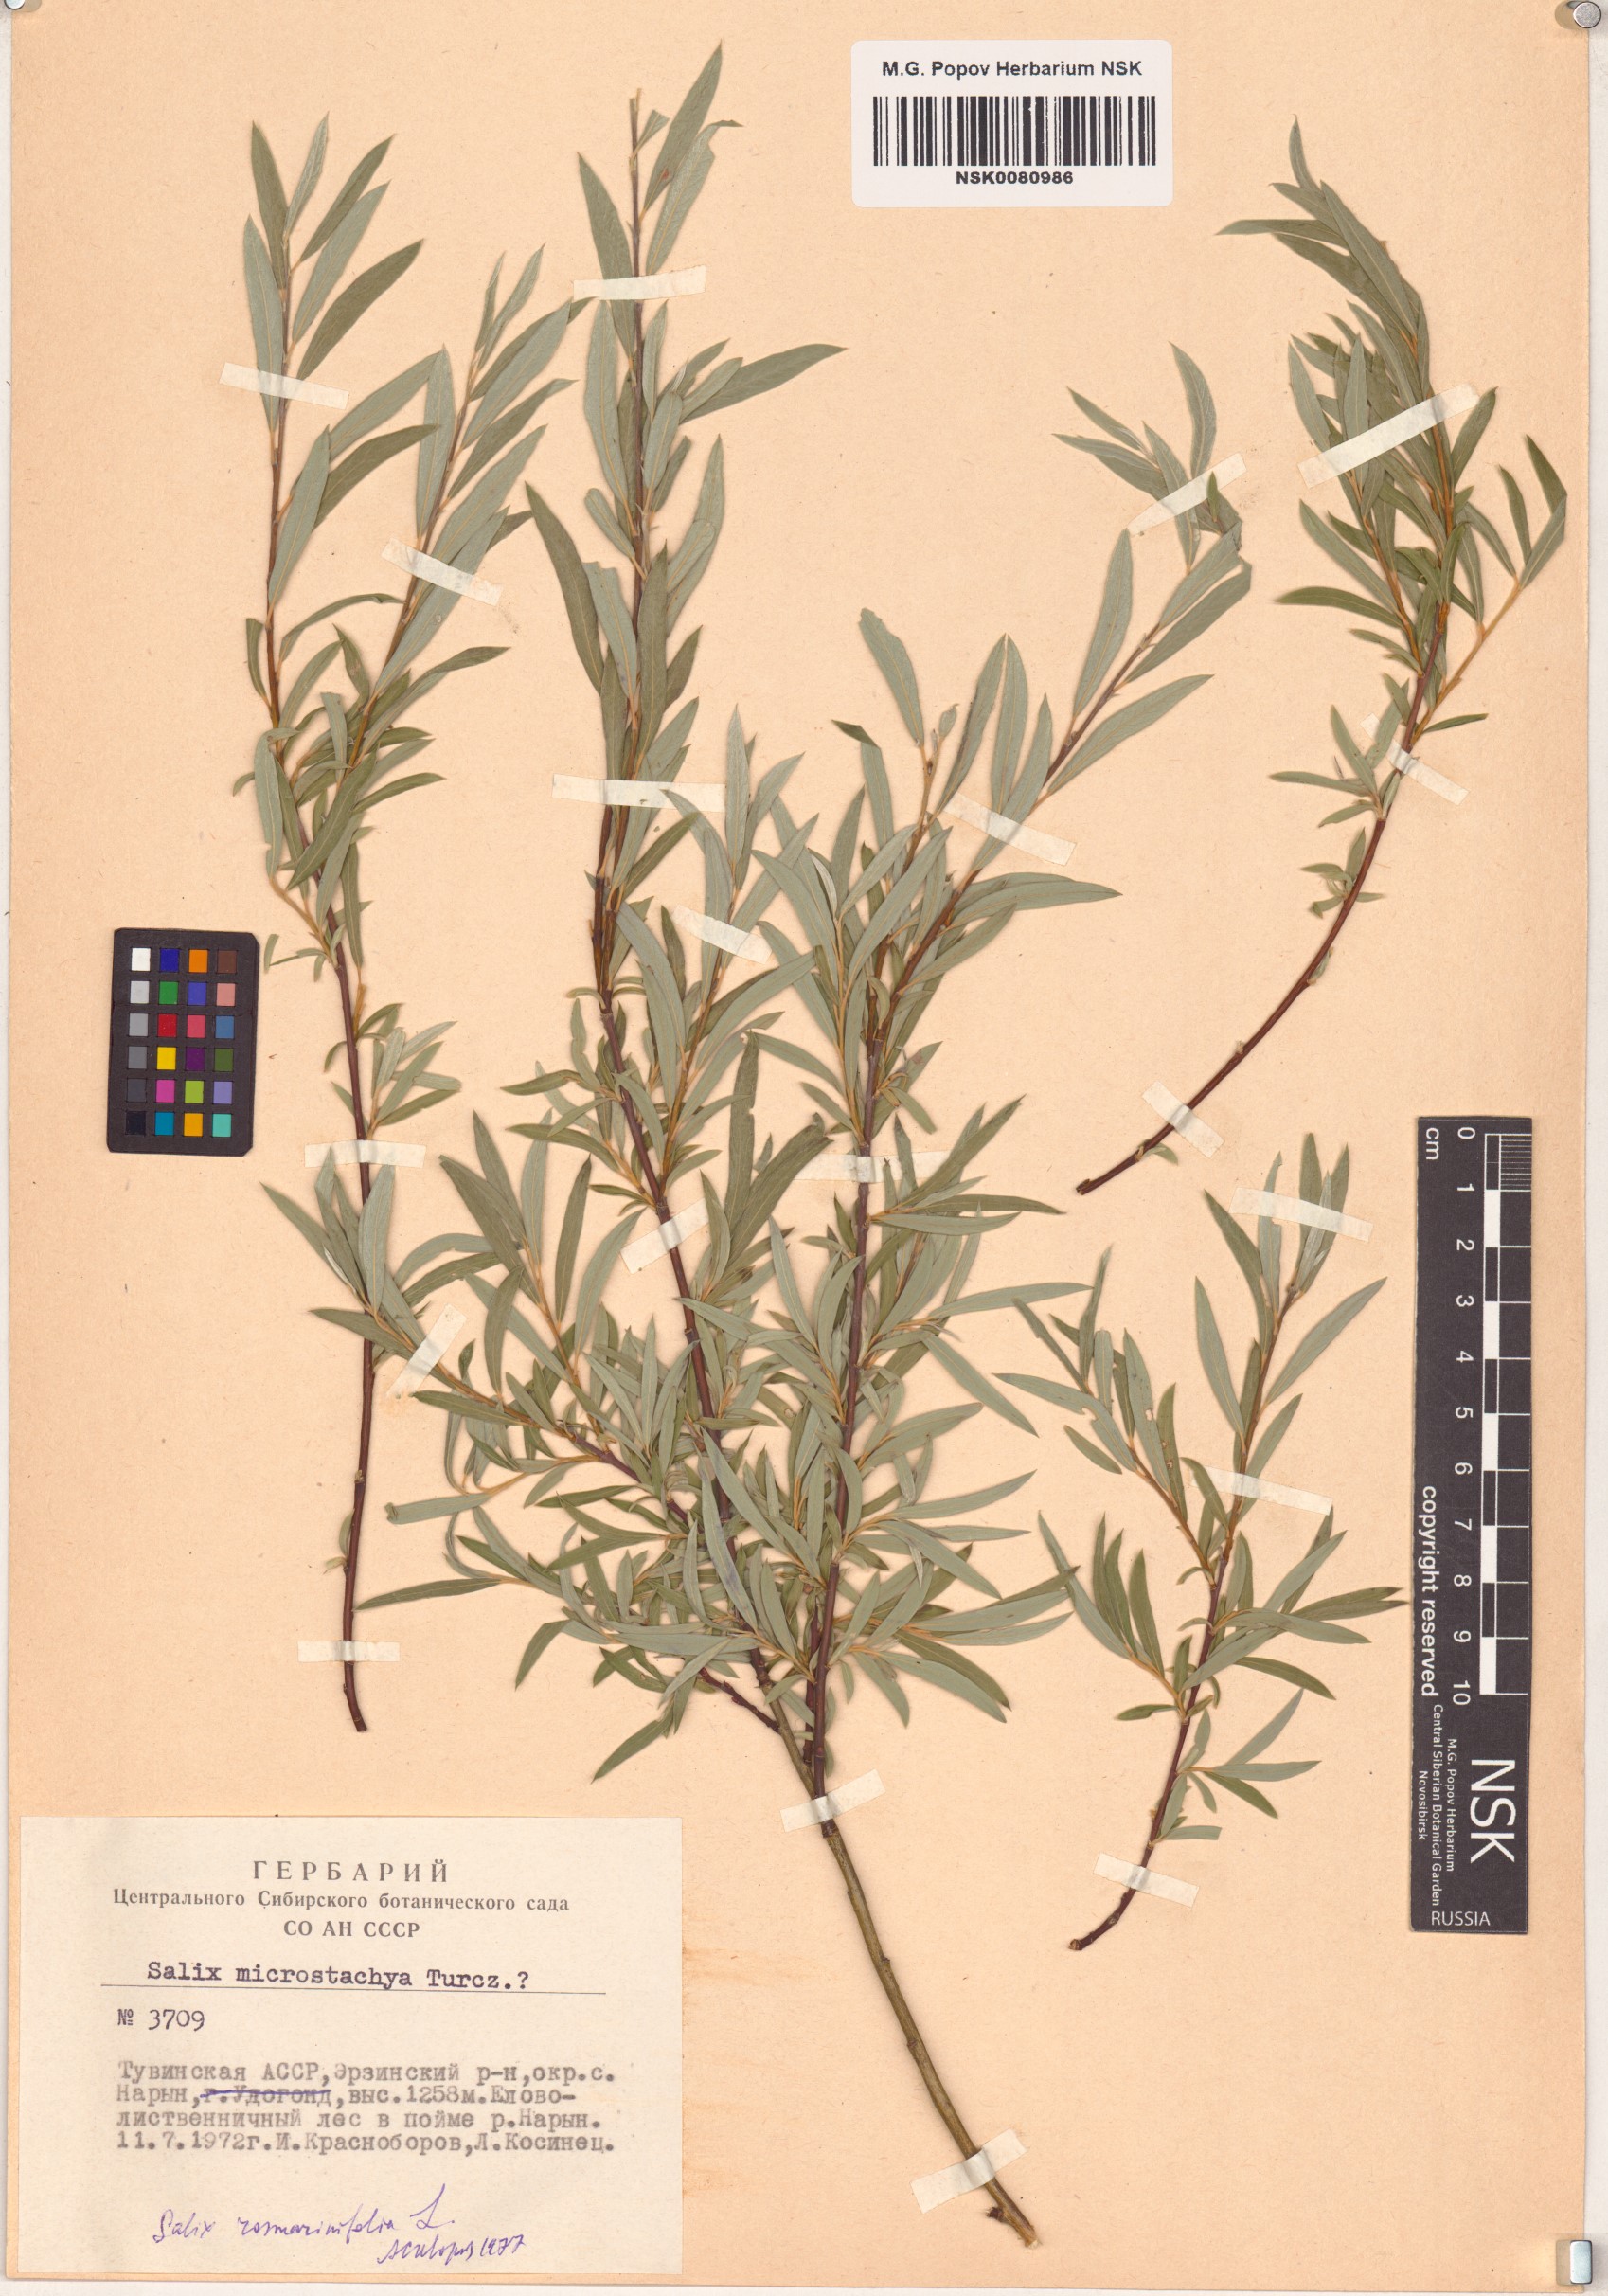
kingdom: Plantae
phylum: Tracheophyta
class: Magnoliopsida
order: Malpighiales
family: Salicaceae
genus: Salix
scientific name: Salix rosmarinifolia
